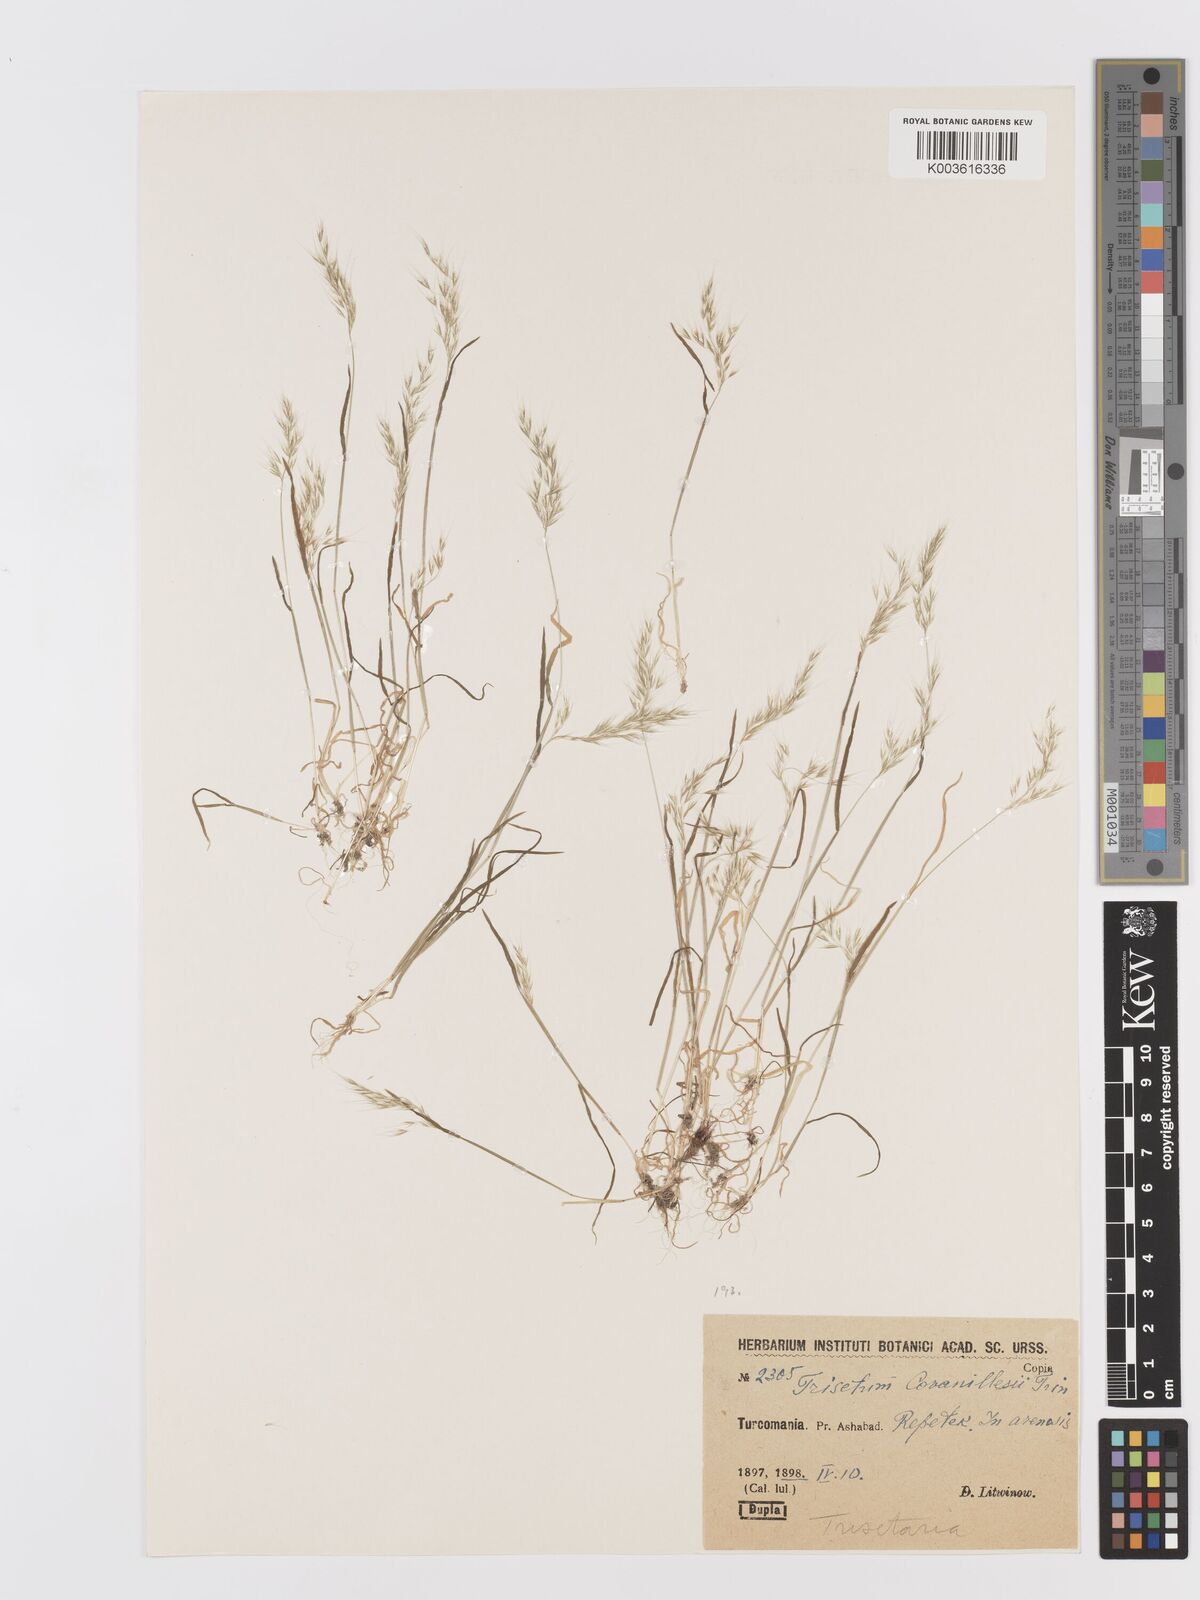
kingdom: Plantae
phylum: Tracheophyta
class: Liliopsida
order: Poales
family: Poaceae
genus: Trisetaria
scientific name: Trisetaria loeflingiana
